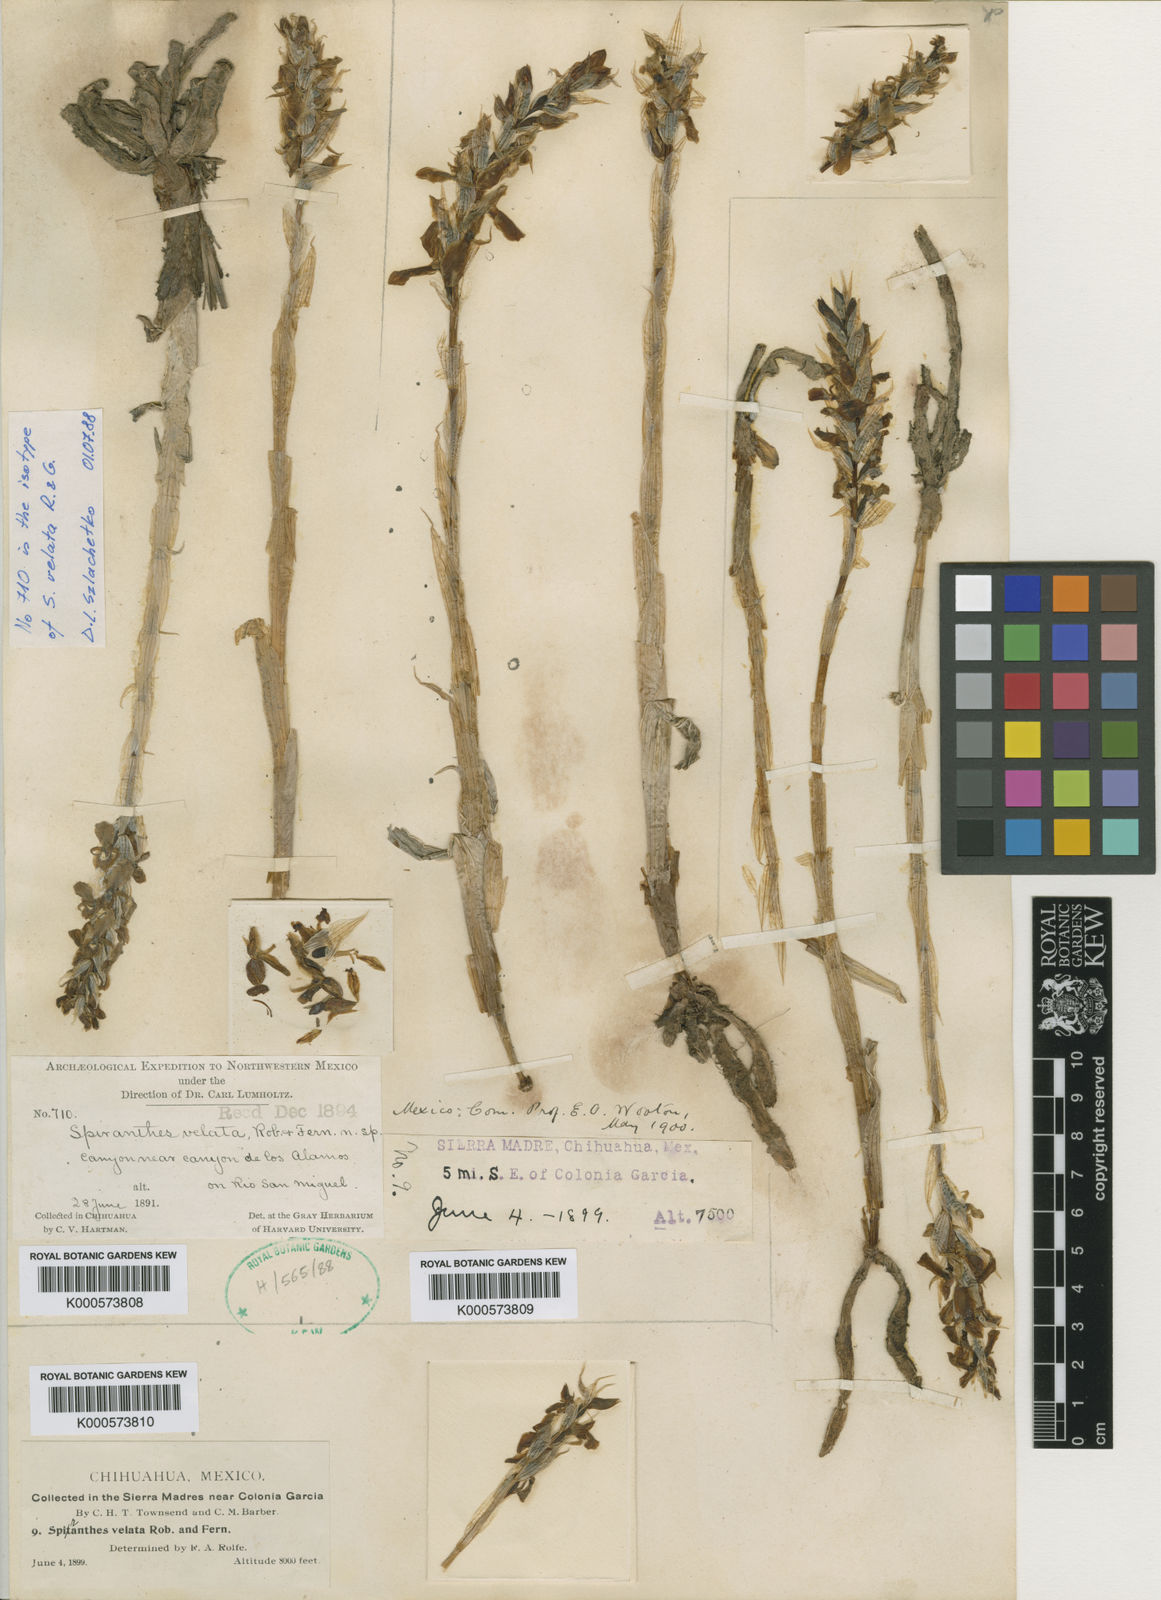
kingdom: Plantae
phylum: Tracheophyta
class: Liliopsida
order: Asparagales
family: Orchidaceae
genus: Deiregyne
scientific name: Deiregyne velata
